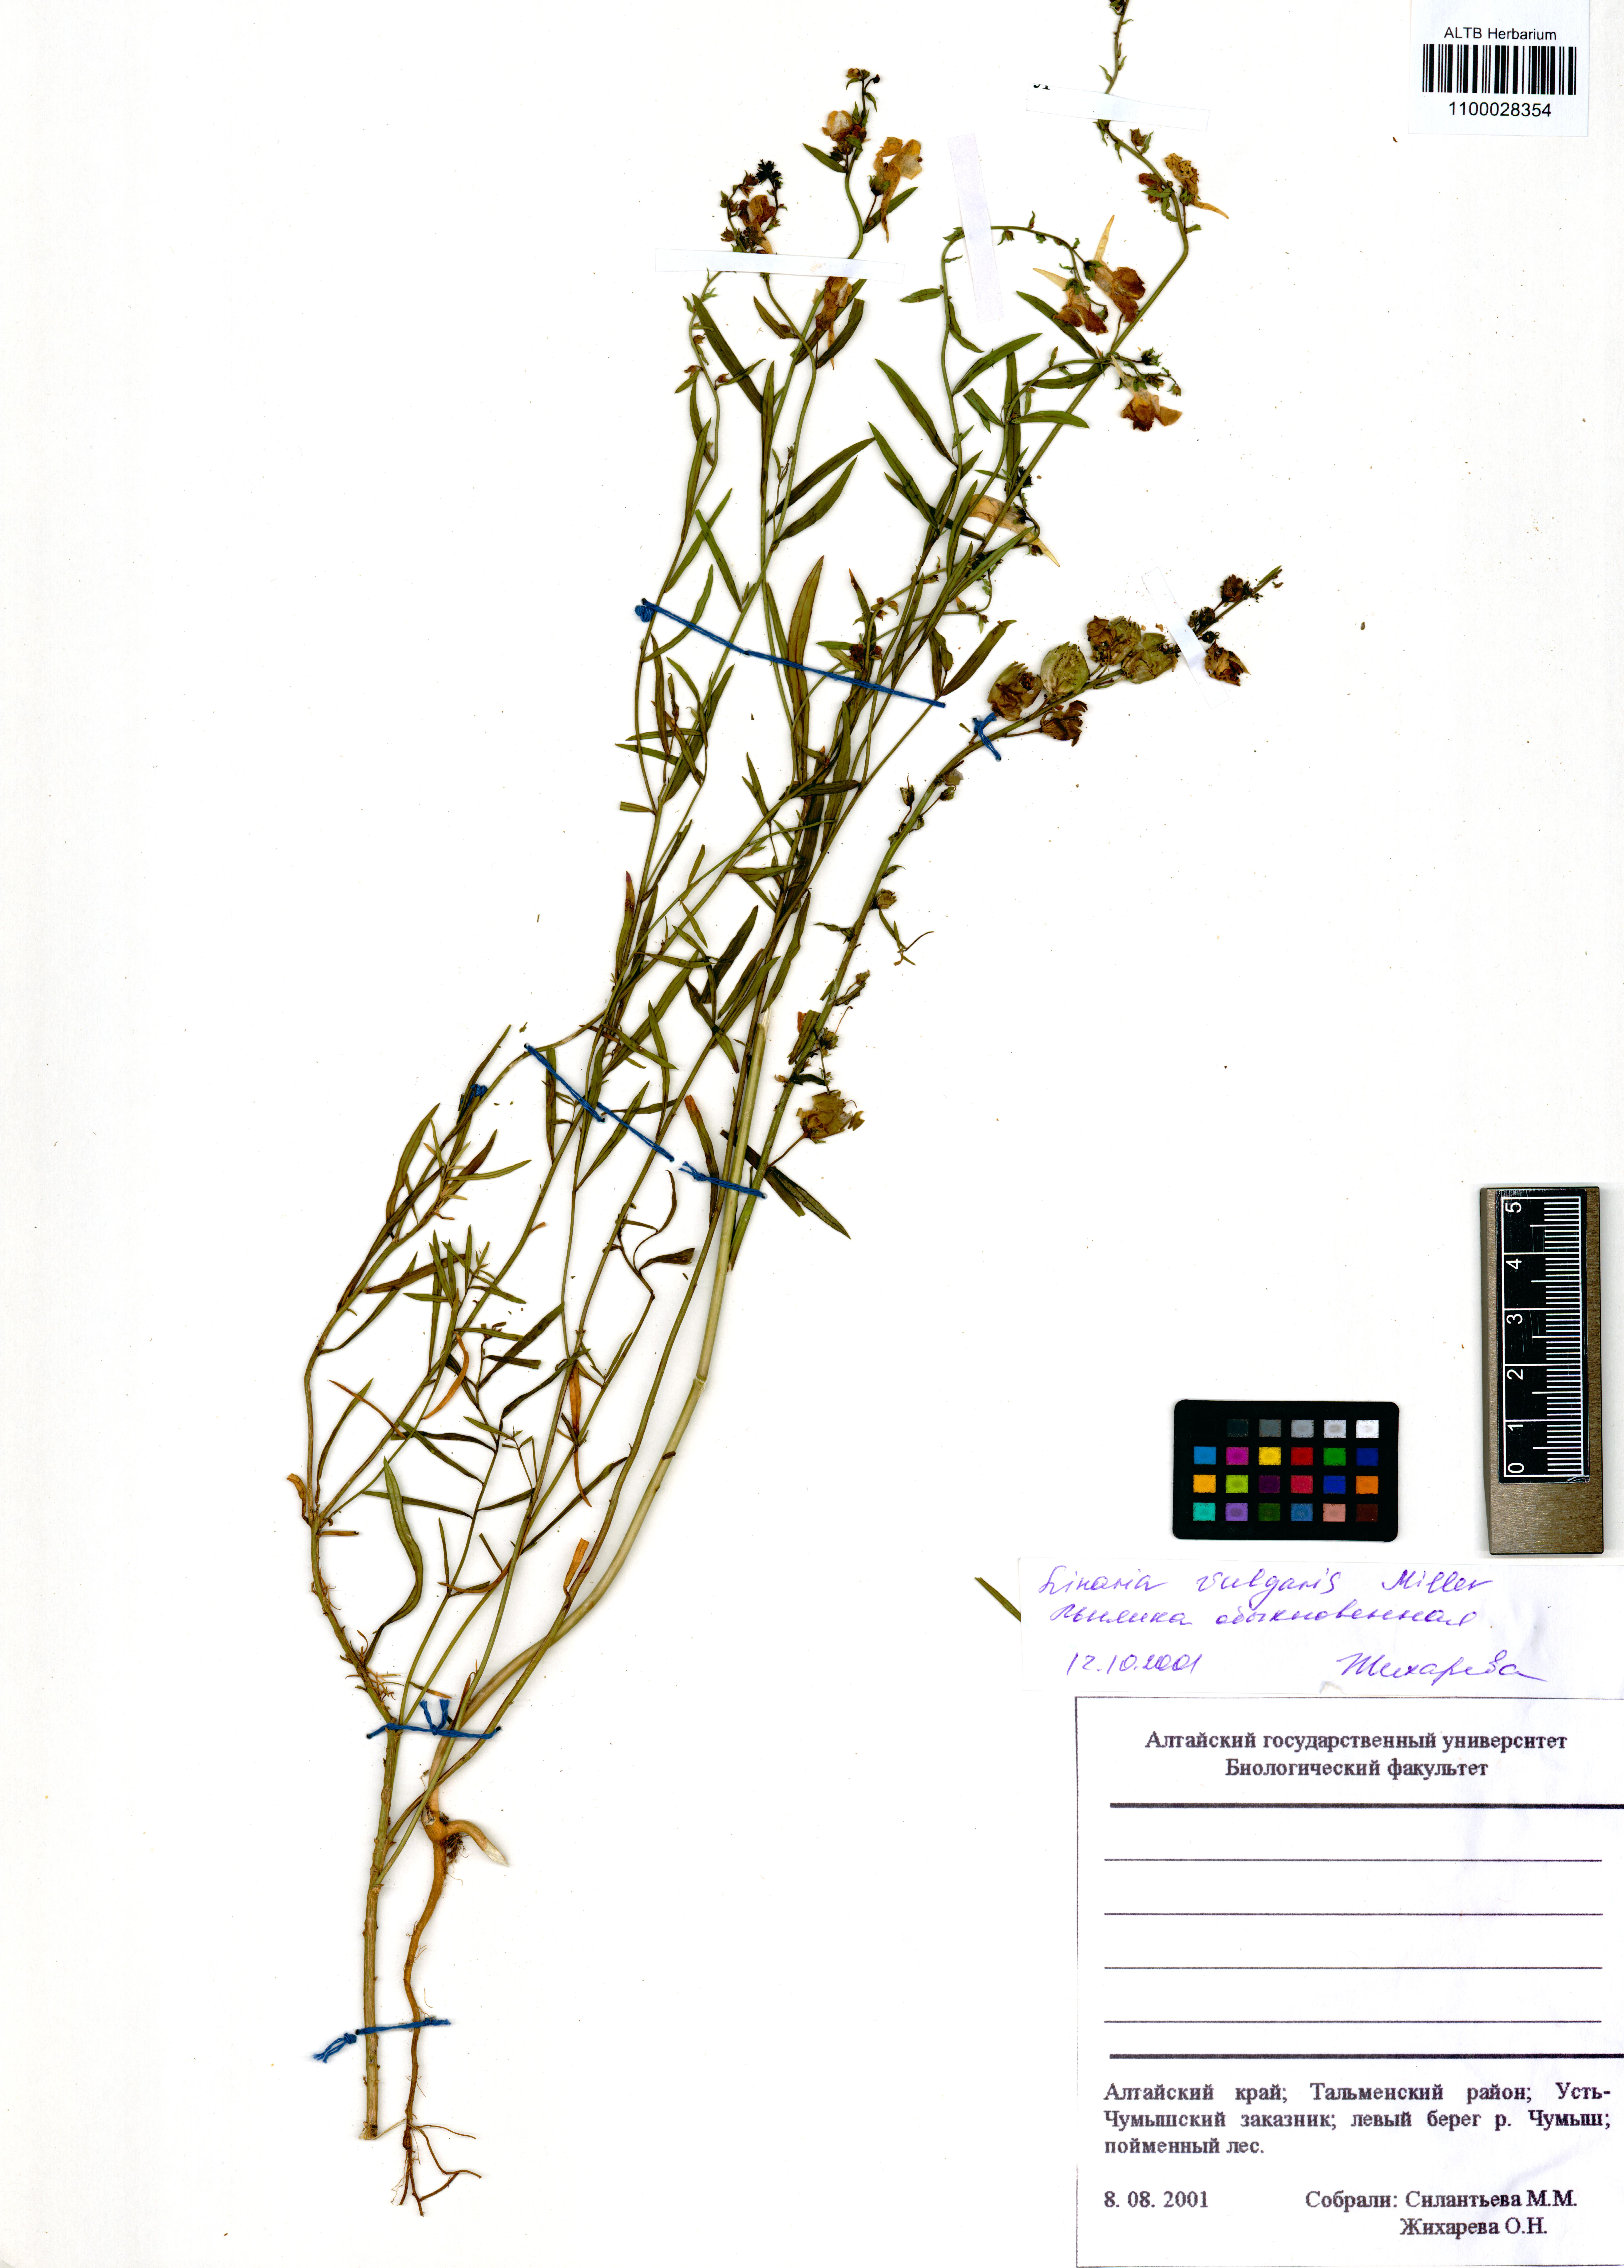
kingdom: Plantae
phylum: Tracheophyta
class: Magnoliopsida
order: Lamiales
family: Plantaginaceae
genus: Linaria
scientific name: Linaria vulgaris
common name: Butter and eggs
